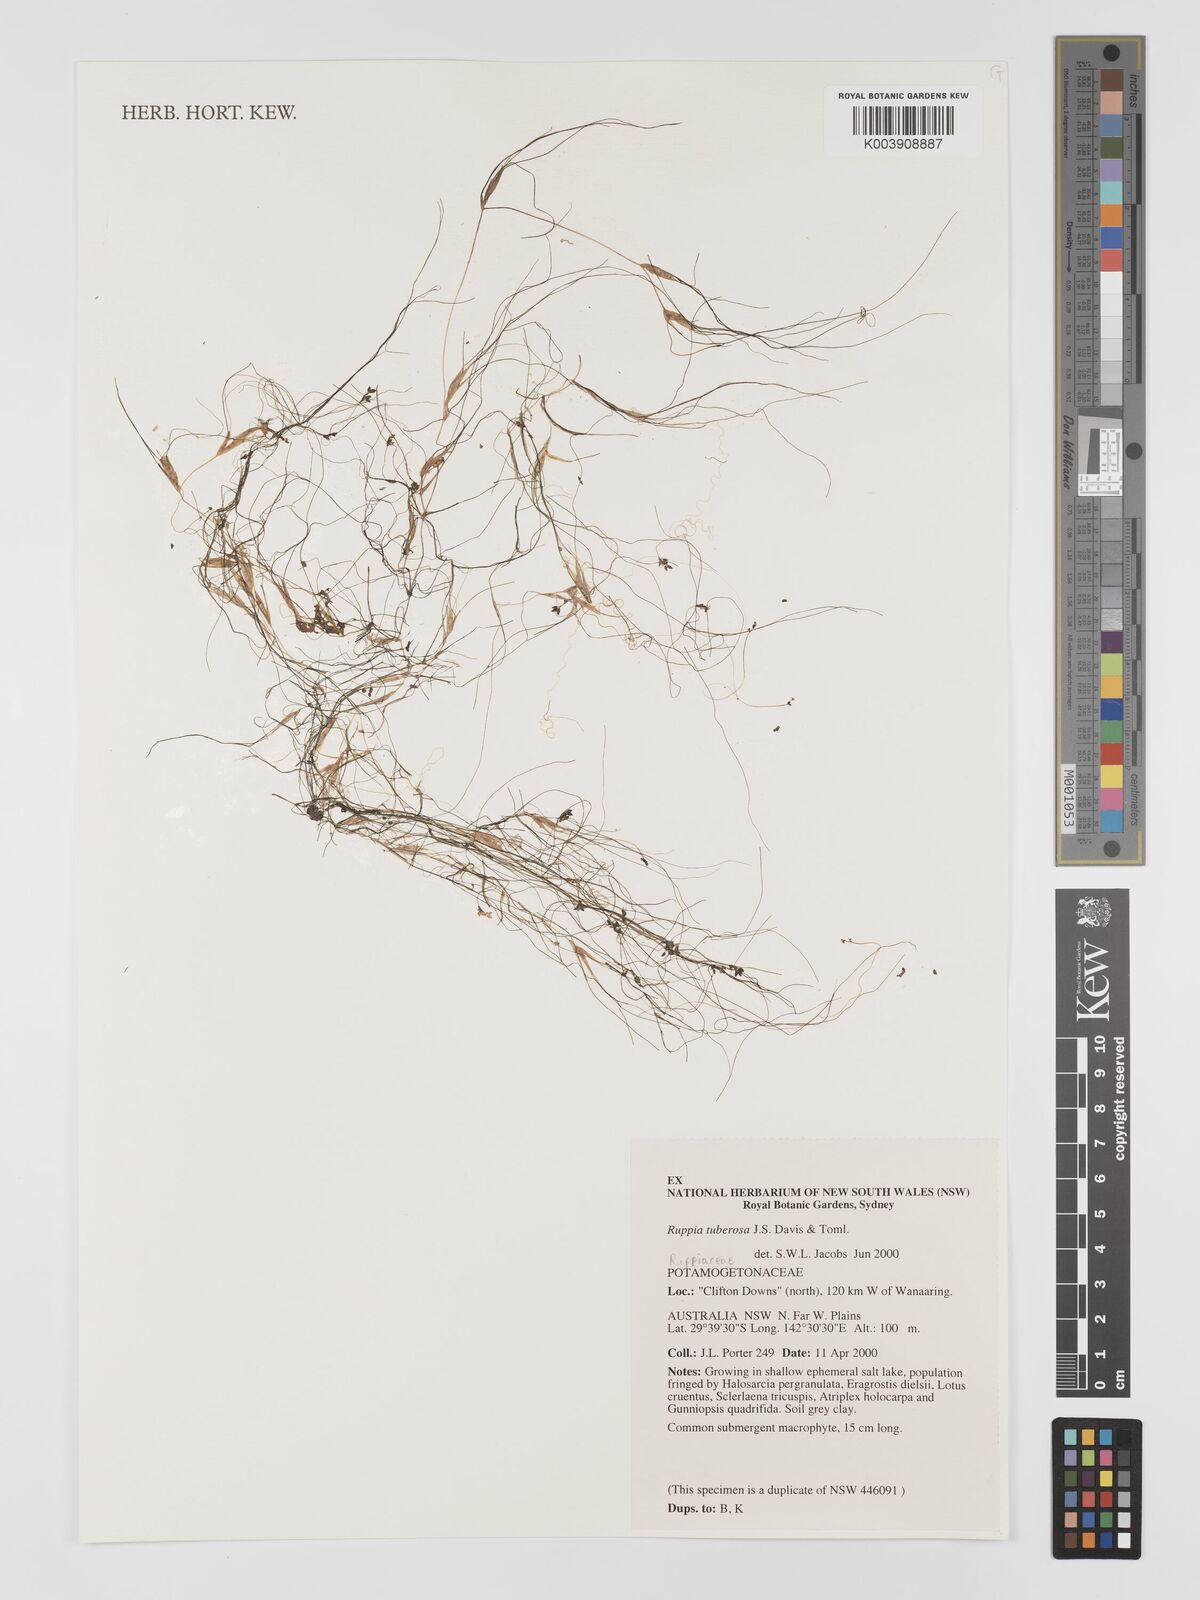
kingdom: Plantae
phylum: Tracheophyta
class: Liliopsida
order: Alismatales
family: Ruppiaceae
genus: Ruppia
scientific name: Ruppia tuberosa
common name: Species code: rt
